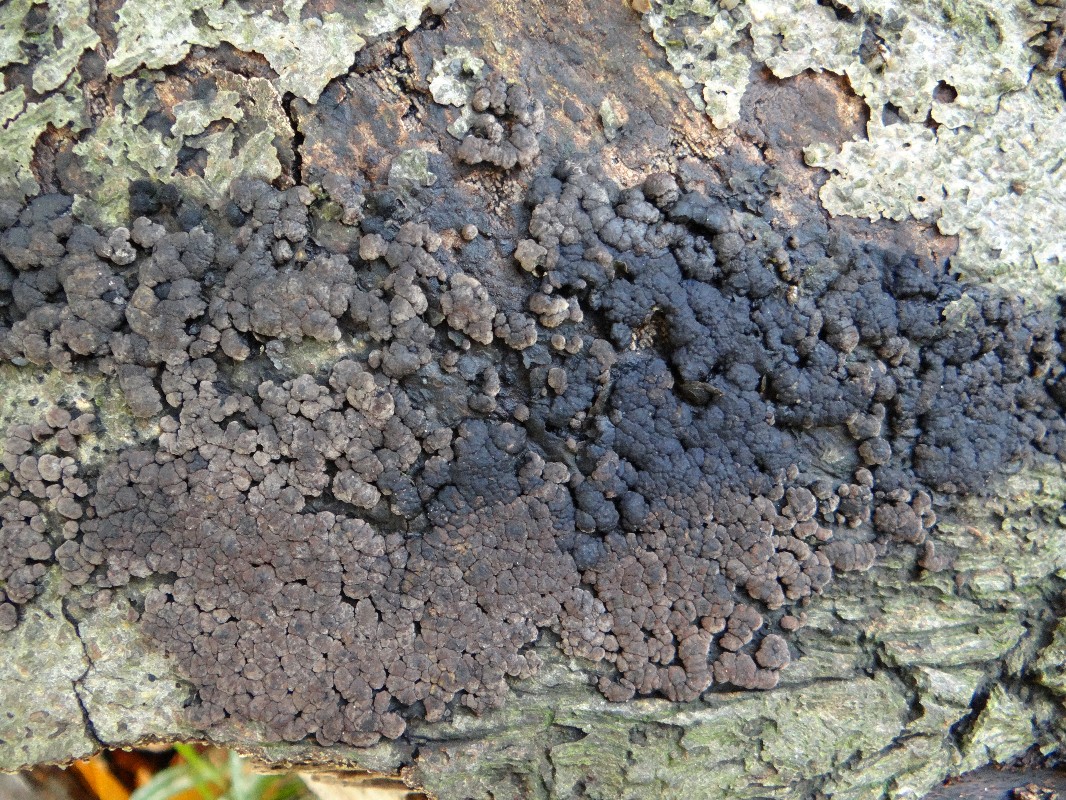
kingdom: Fungi
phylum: Ascomycota
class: Sordariomycetes
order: Xylariales
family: Hypoxylaceae
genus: Jackrogersella
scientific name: Jackrogersella cohaerens
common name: sammenflydende kulbær
